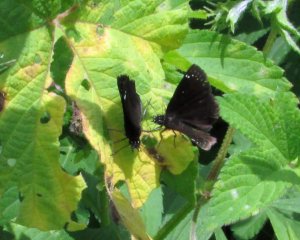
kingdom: Animalia
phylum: Arthropoda
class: Insecta
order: Lepidoptera
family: Hesperiidae
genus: Pholisora
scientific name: Pholisora catullus
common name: Common Sootywing
